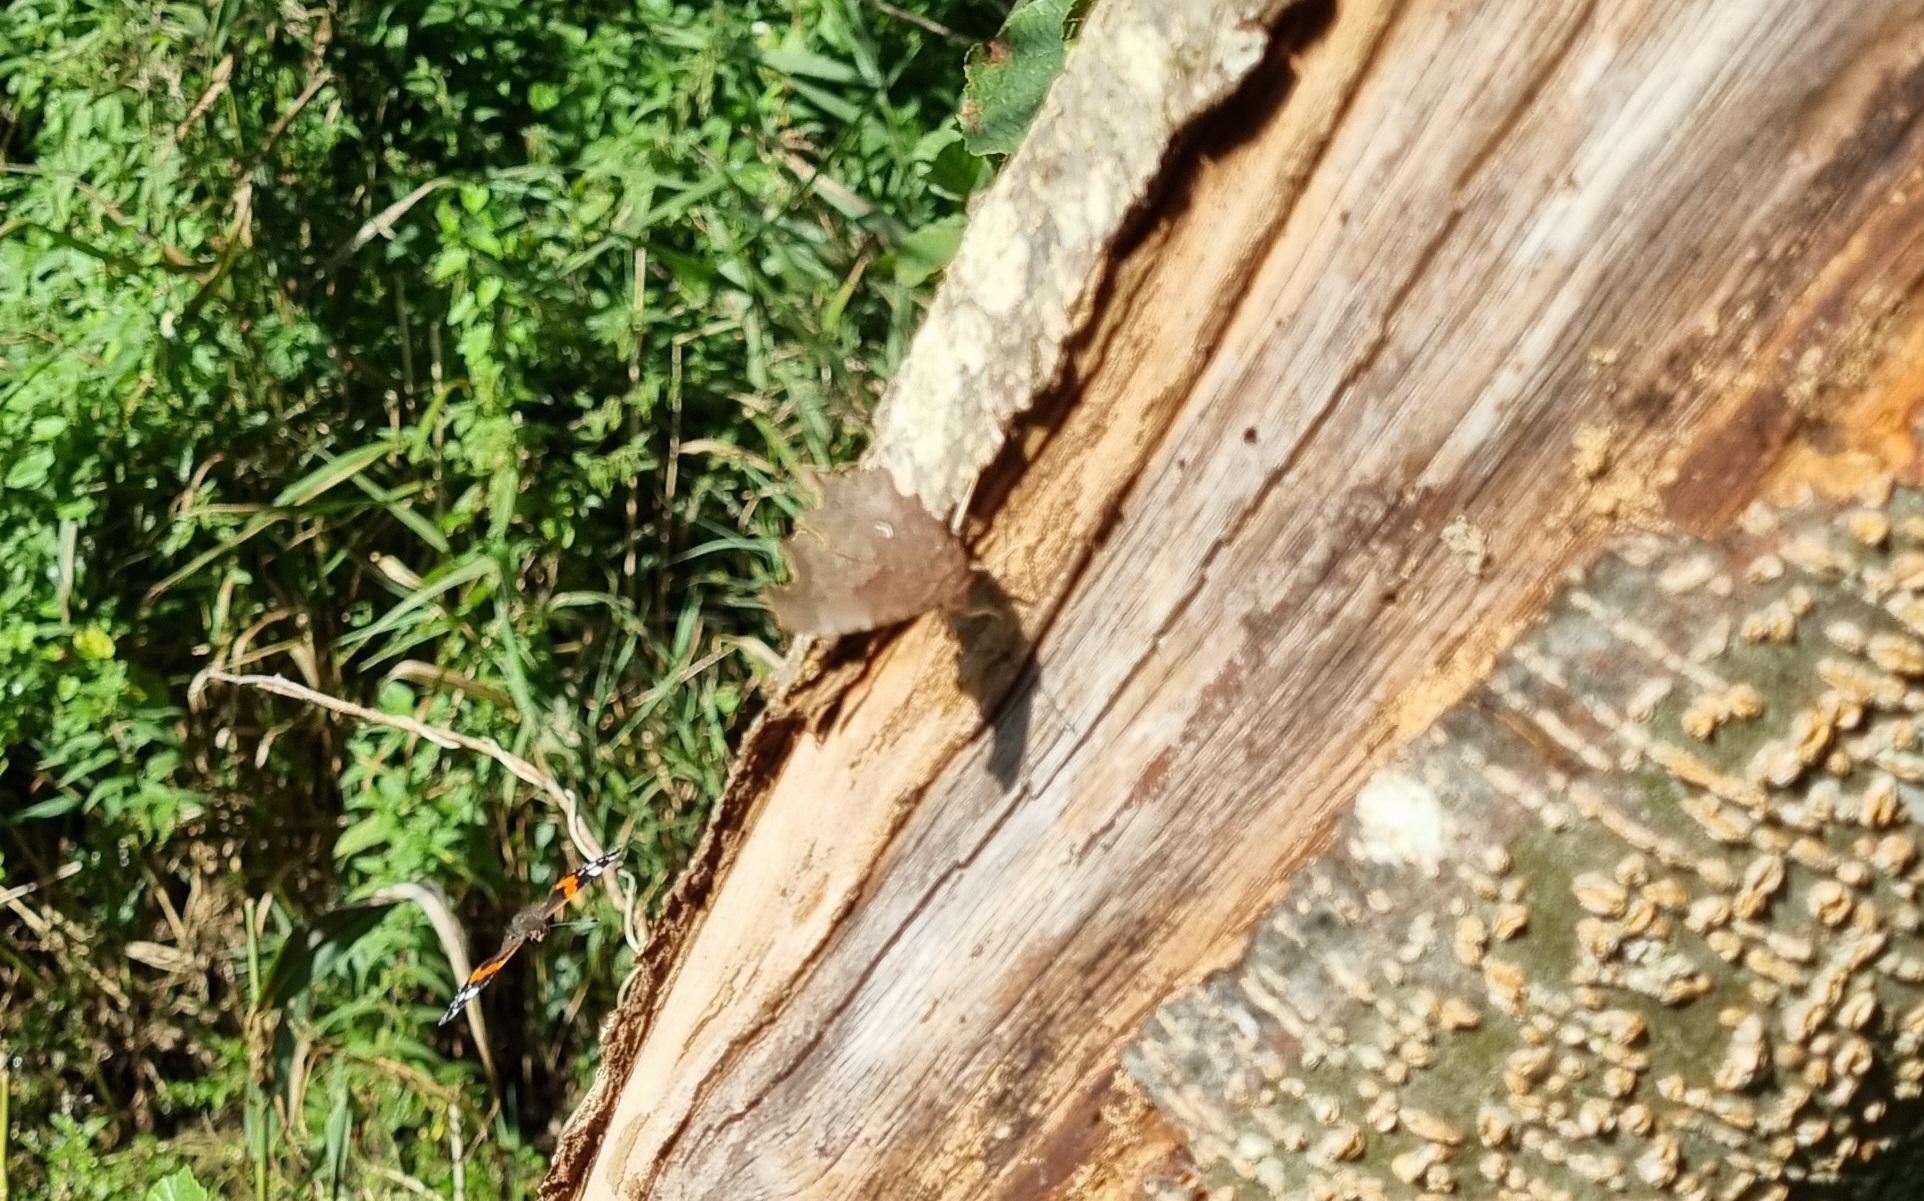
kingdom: Animalia
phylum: Arthropoda
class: Insecta
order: Lepidoptera
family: Nymphalidae
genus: Polygonia
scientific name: Polygonia c-album
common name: Det hvide C
